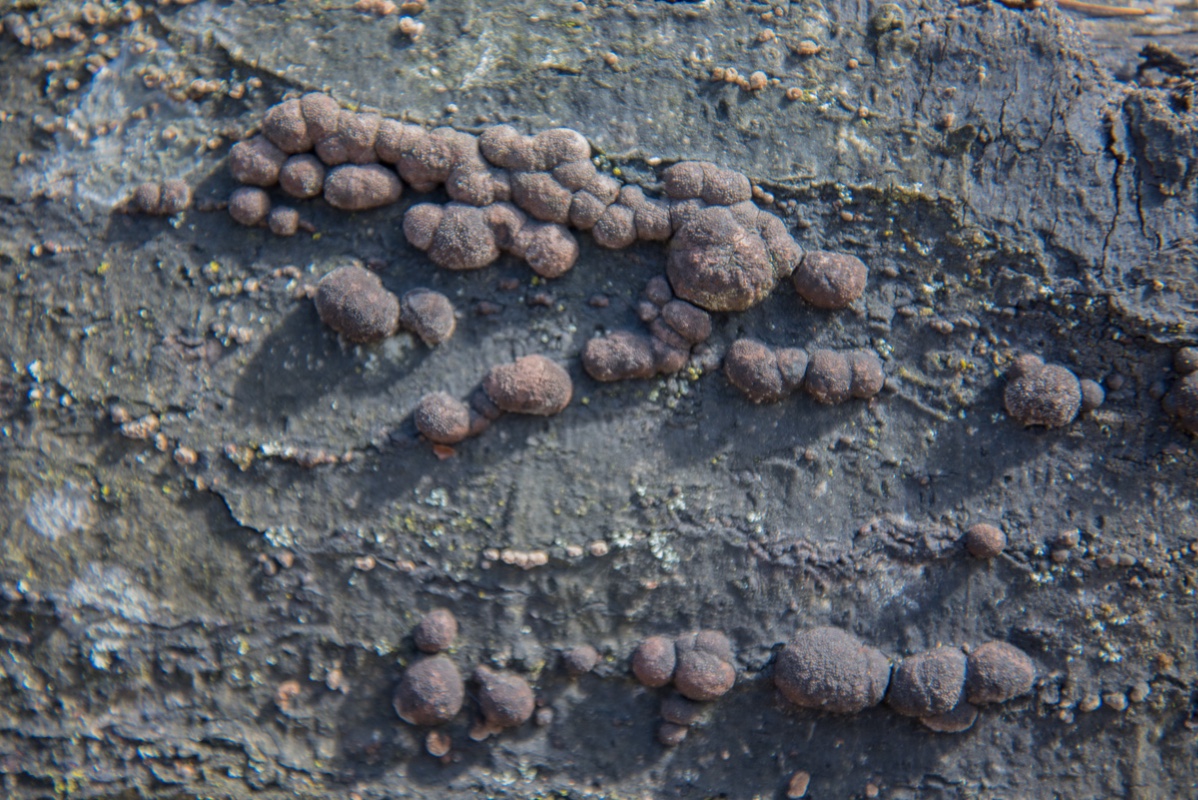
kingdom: Fungi
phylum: Ascomycota
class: Sordariomycetes
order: Xylariales
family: Hypoxylaceae
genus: Hypoxylon
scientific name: Hypoxylon fragiforme
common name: kuljordbær
